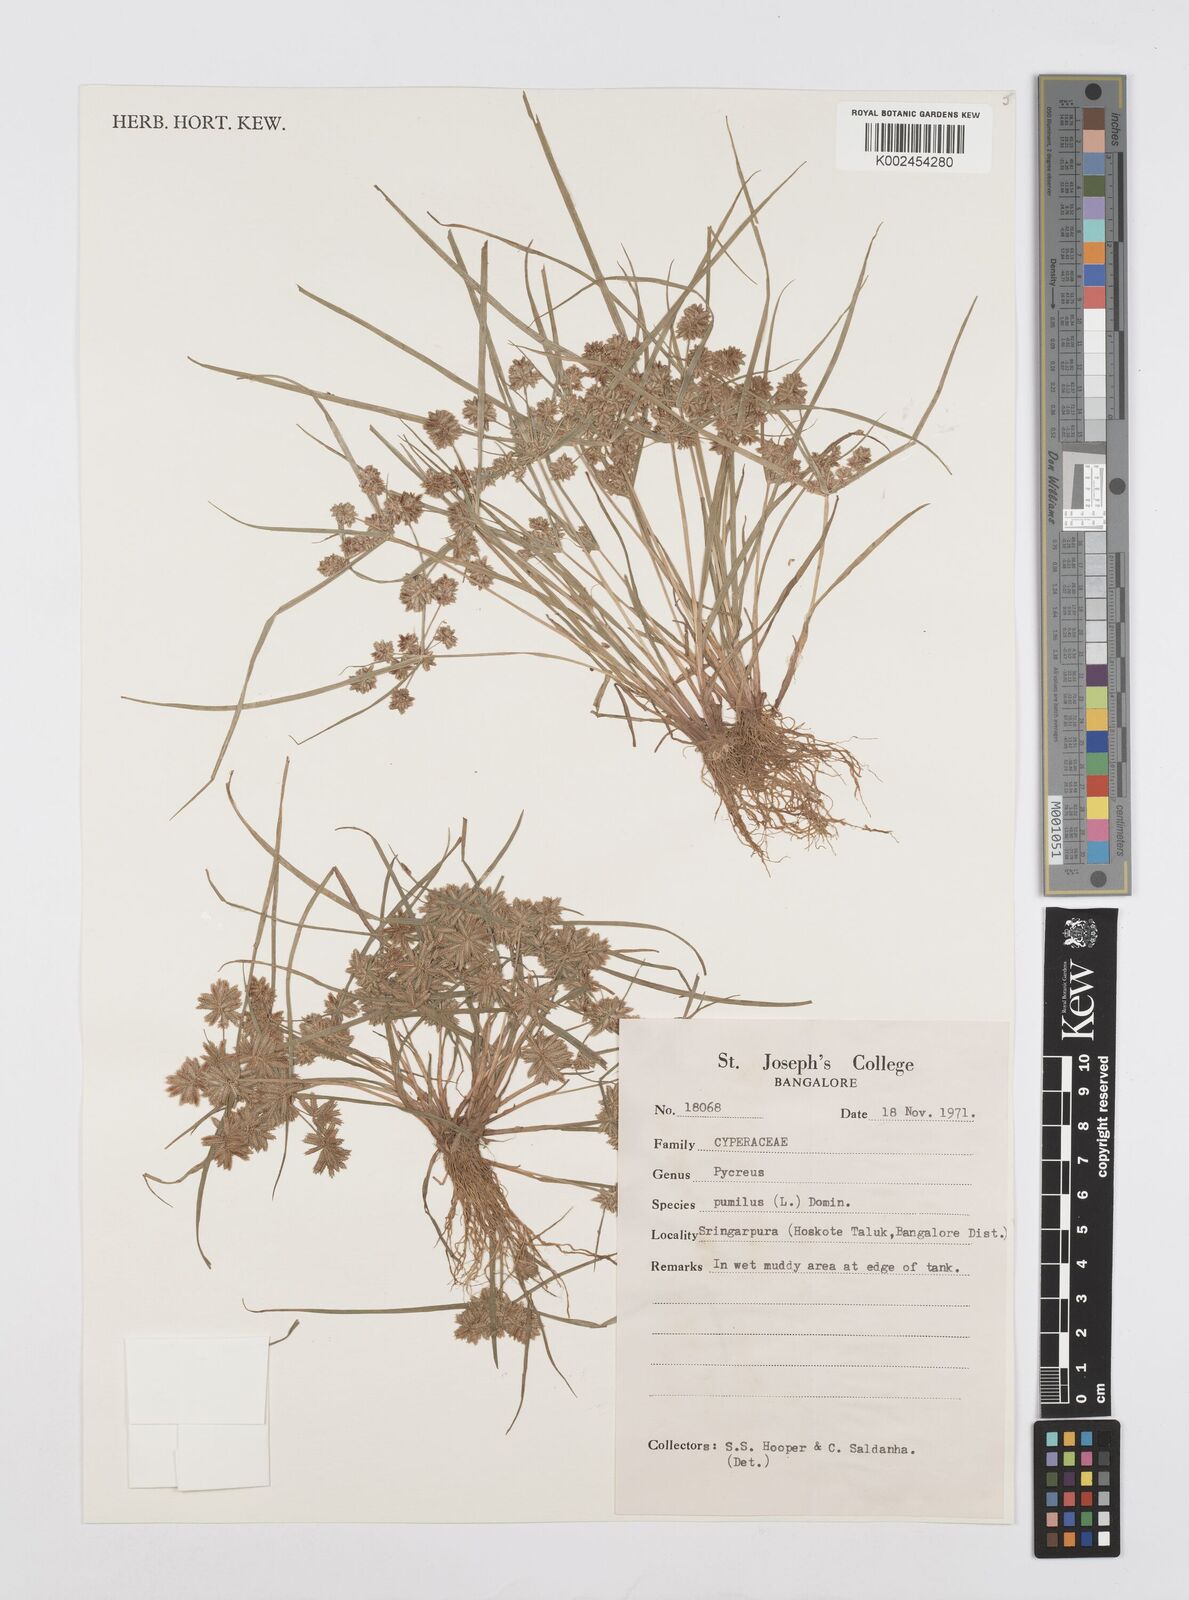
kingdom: Plantae
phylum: Tracheophyta
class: Liliopsida
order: Poales
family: Cyperaceae
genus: Cyperus
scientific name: Cyperus pumilus
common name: Low flatsedge
